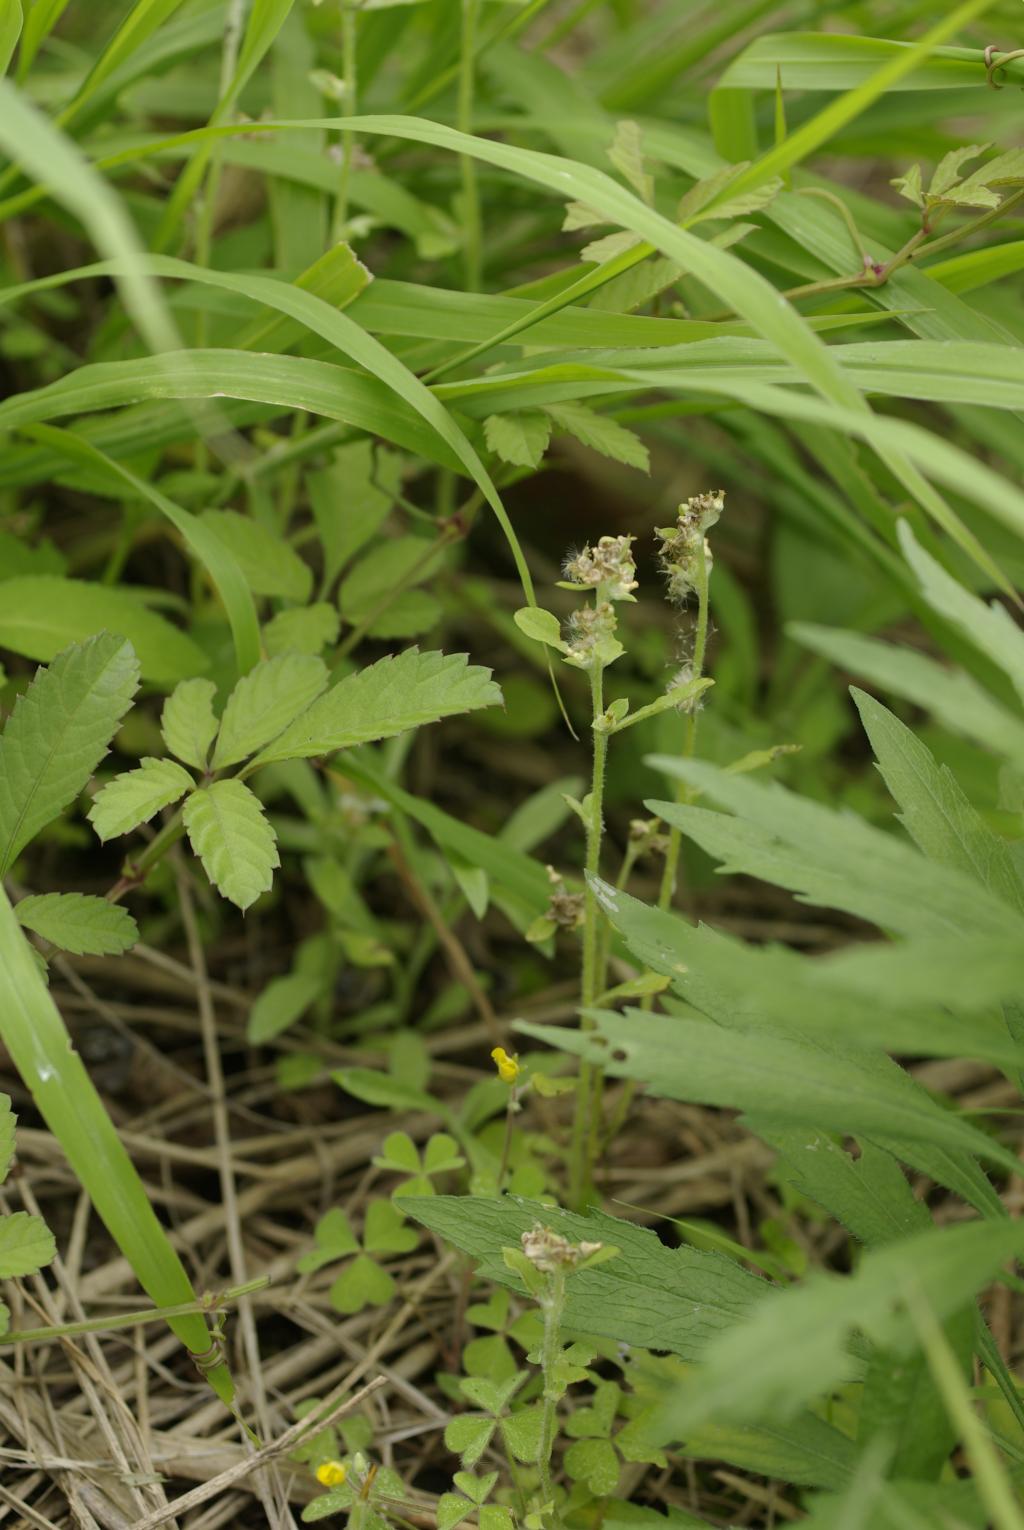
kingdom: Plantae
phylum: Tracheophyta
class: Magnoliopsida
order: Asterales
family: Asteraceae
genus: Gamochaeta
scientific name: Gamochaeta purpurea
